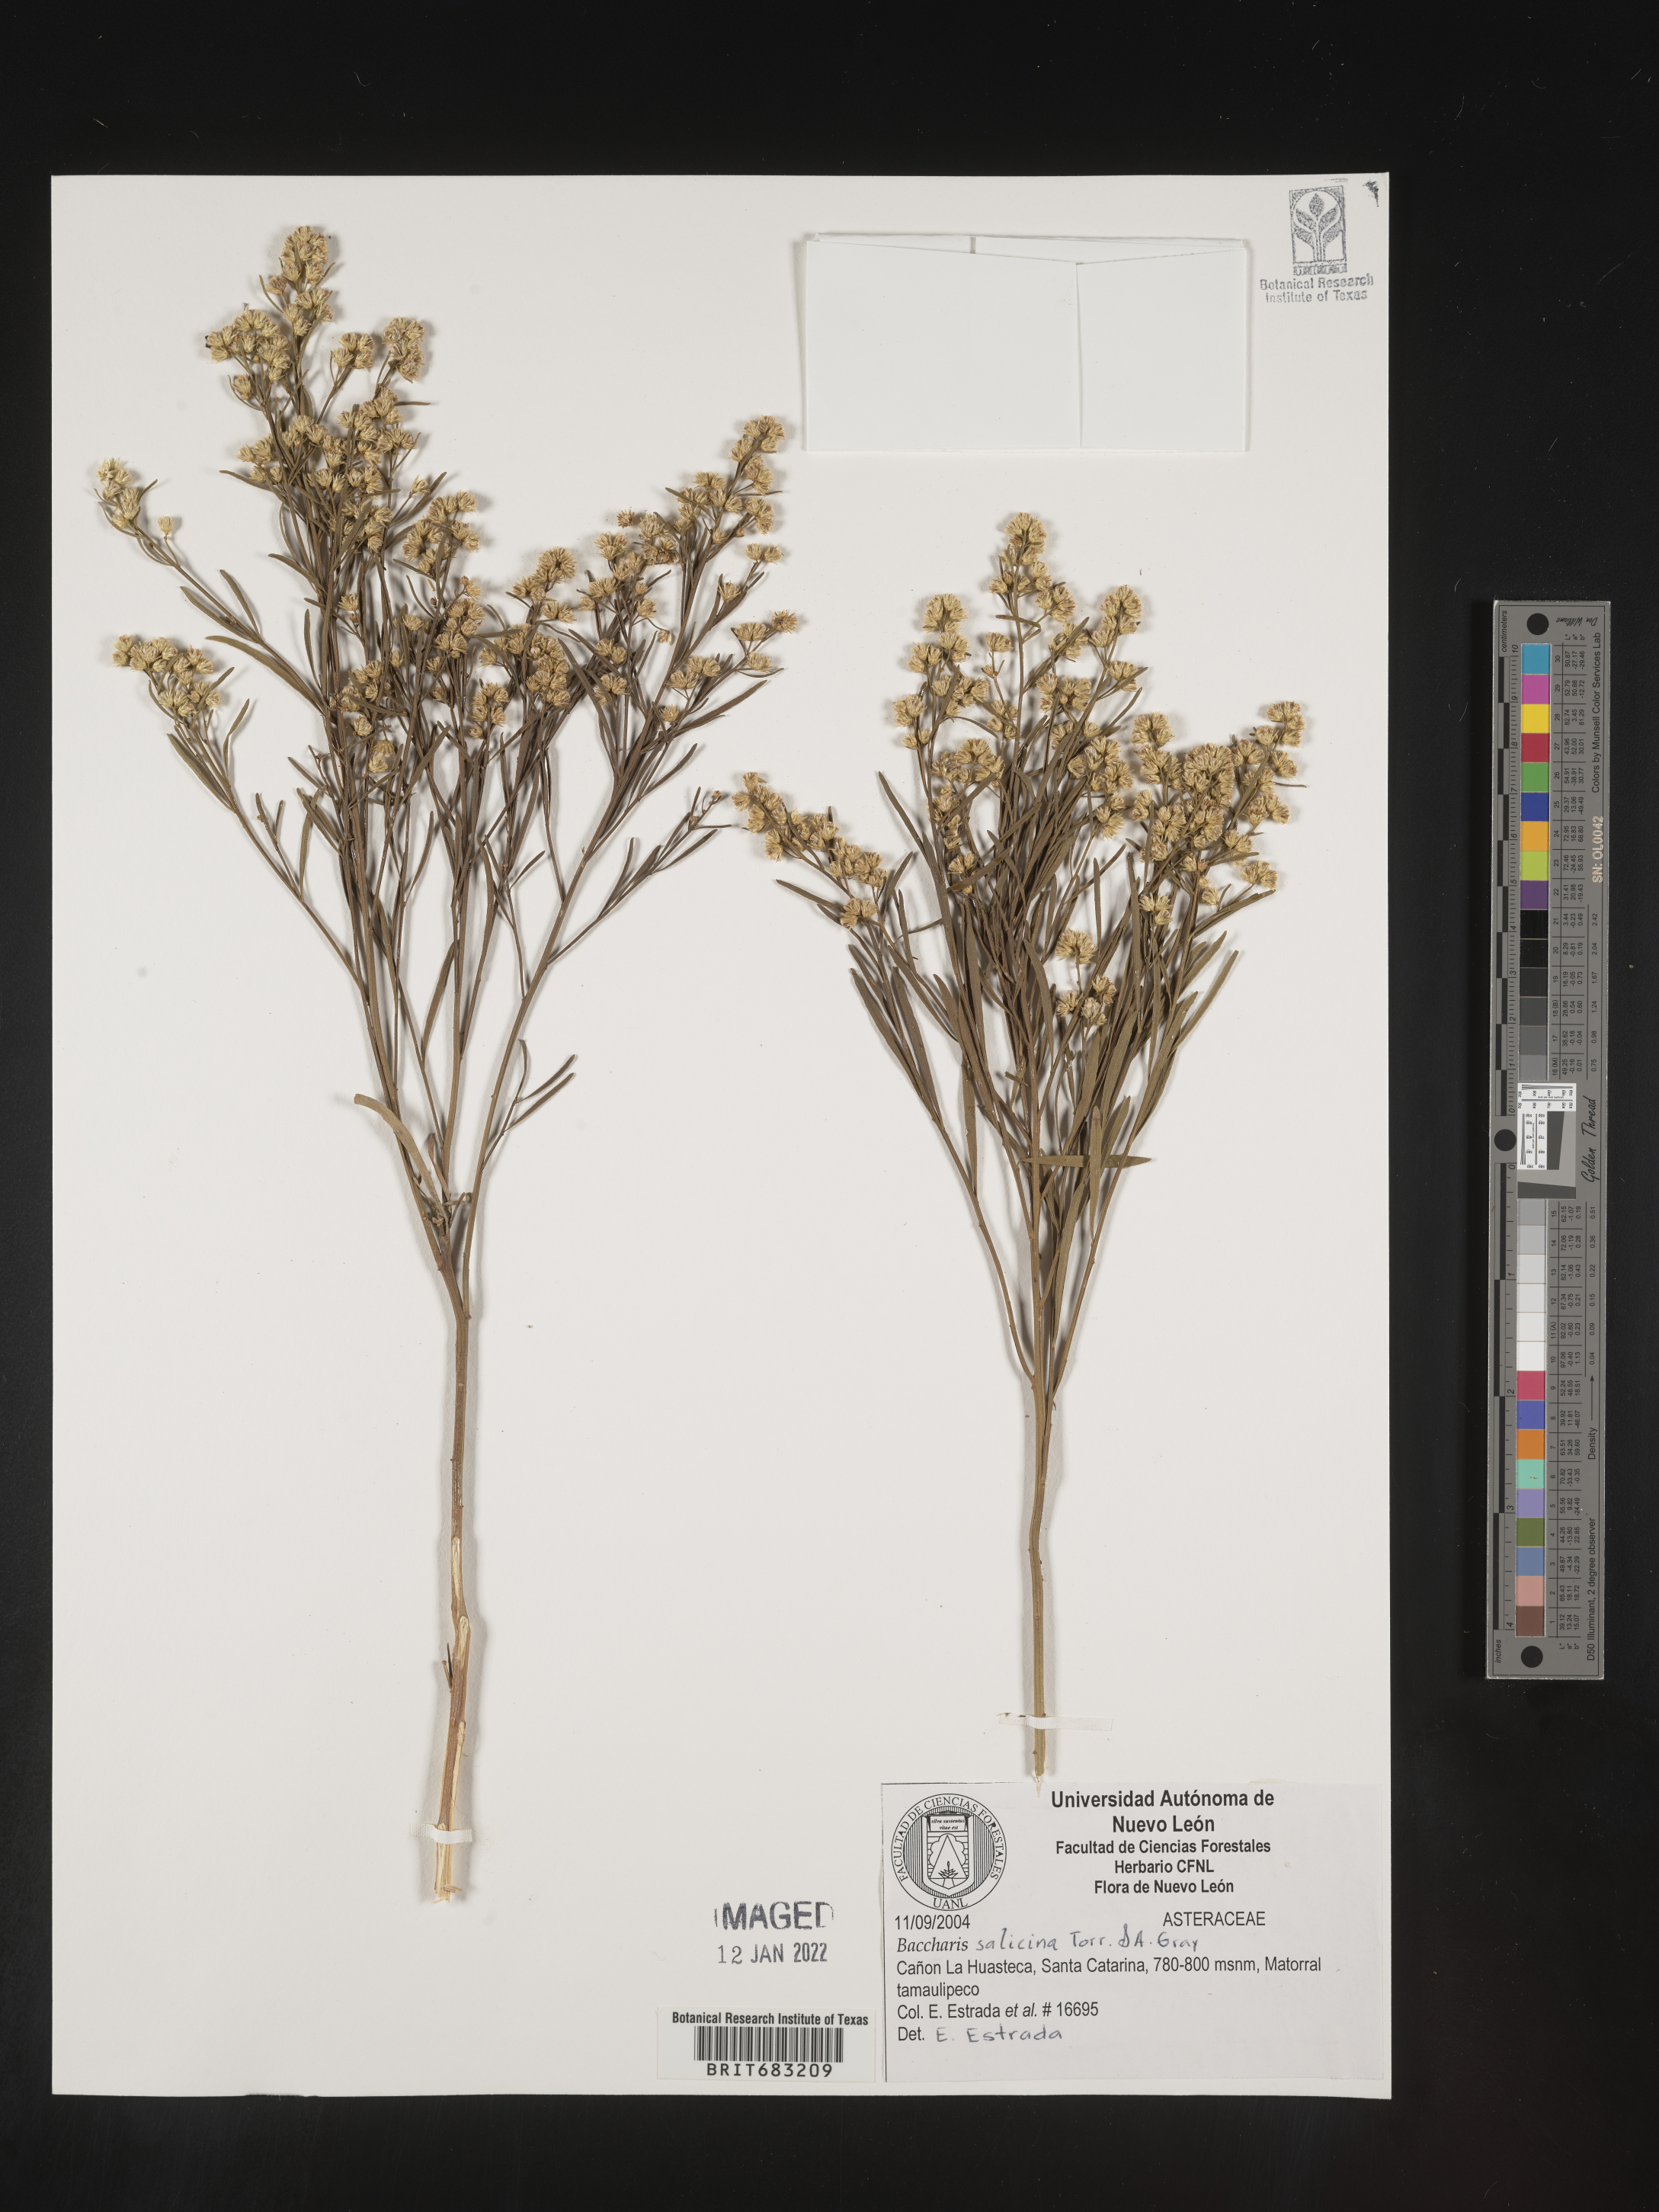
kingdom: Plantae
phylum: Tracheophyta
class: Magnoliopsida
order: Asterales
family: Asteraceae
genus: Baccharis
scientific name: Baccharis salicina
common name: Willow baccharis
